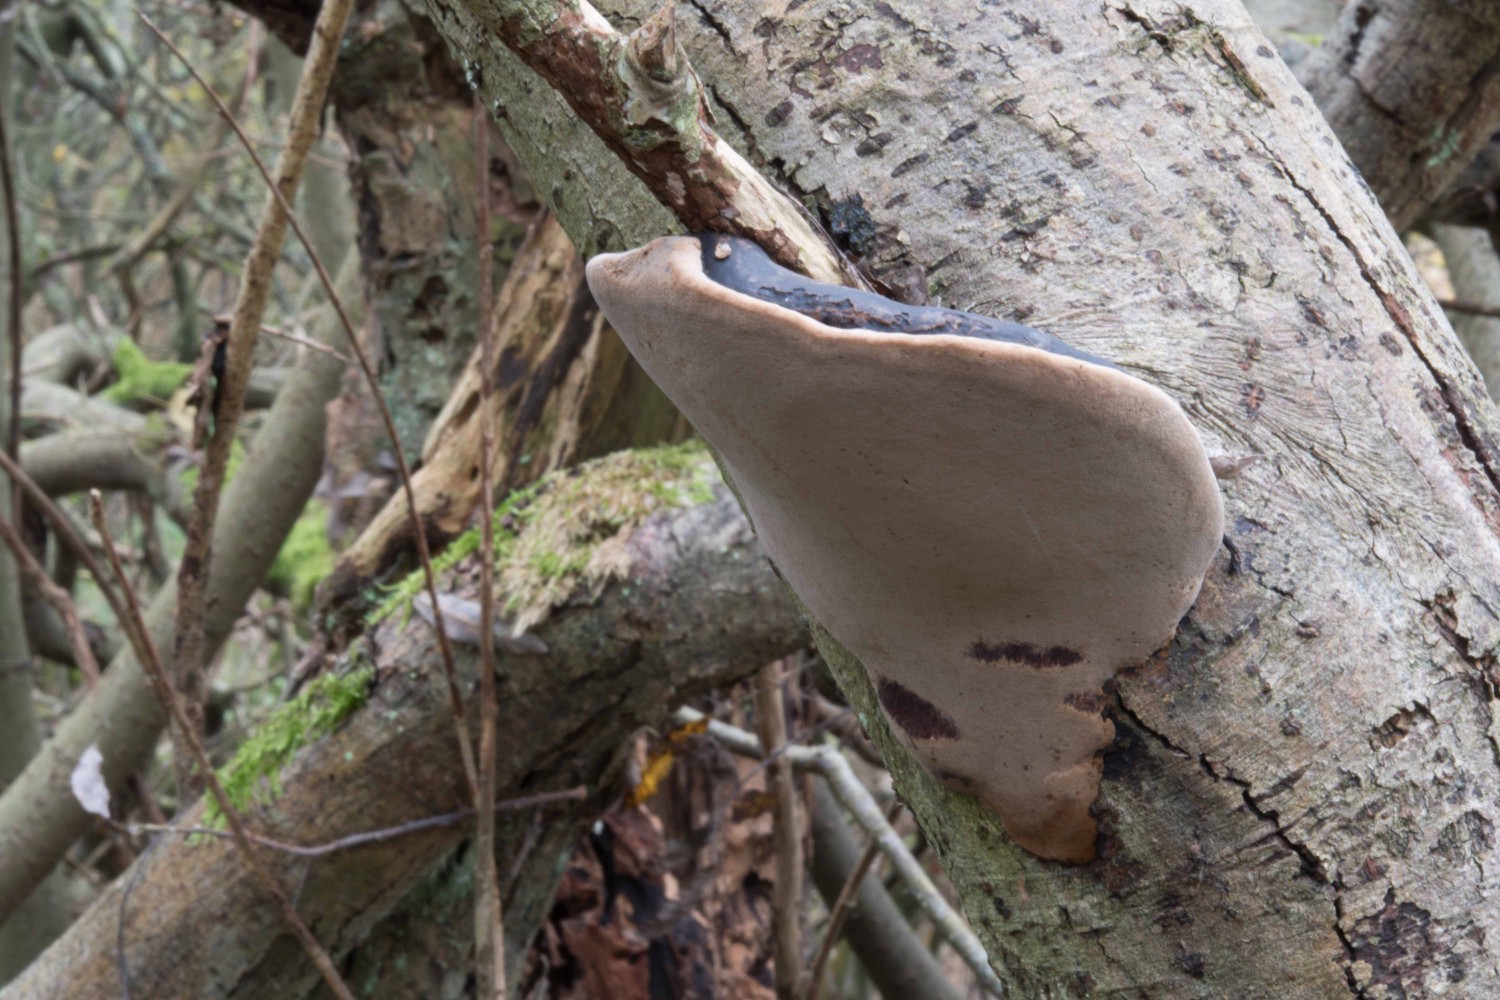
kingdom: Fungi
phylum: Basidiomycota
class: Agaricomycetes
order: Hymenochaetales
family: Hymenochaetaceae
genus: Phellinus
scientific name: Phellinus igniarius
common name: almindelig ildporesvamp
